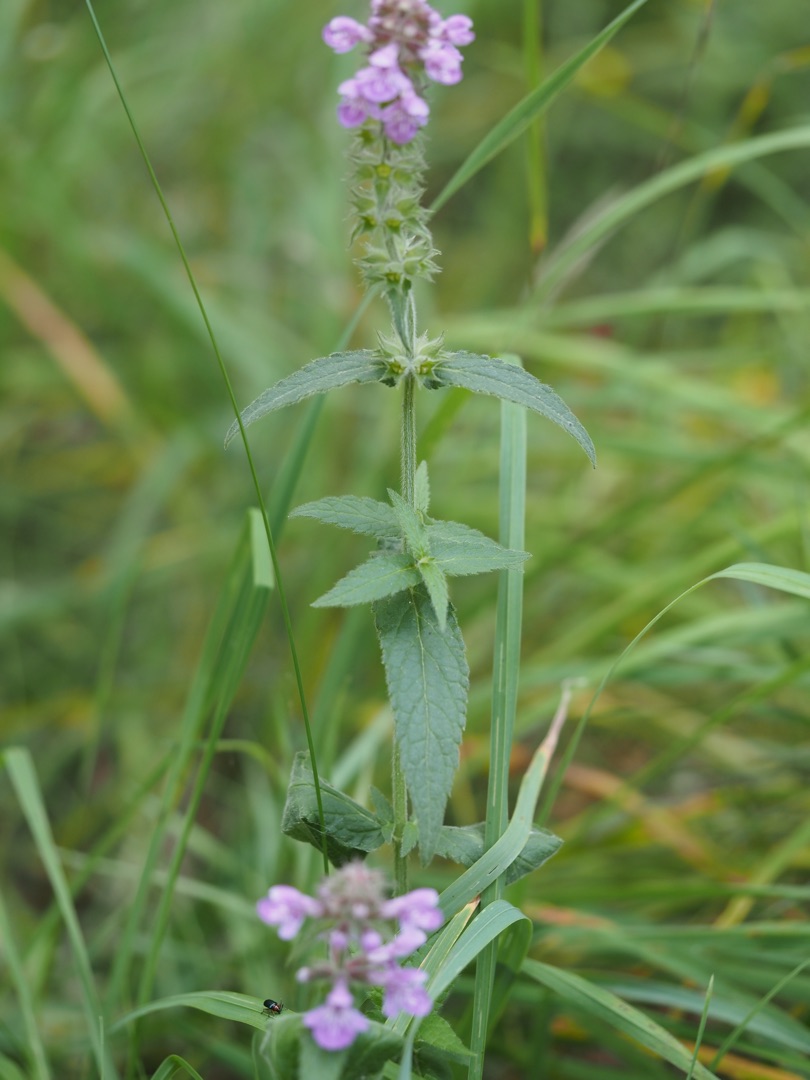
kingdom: Plantae
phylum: Tracheophyta
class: Magnoliopsida
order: Lamiales
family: Lamiaceae
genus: Stachys
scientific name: Stachys palustris
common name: Kær-galtetand
